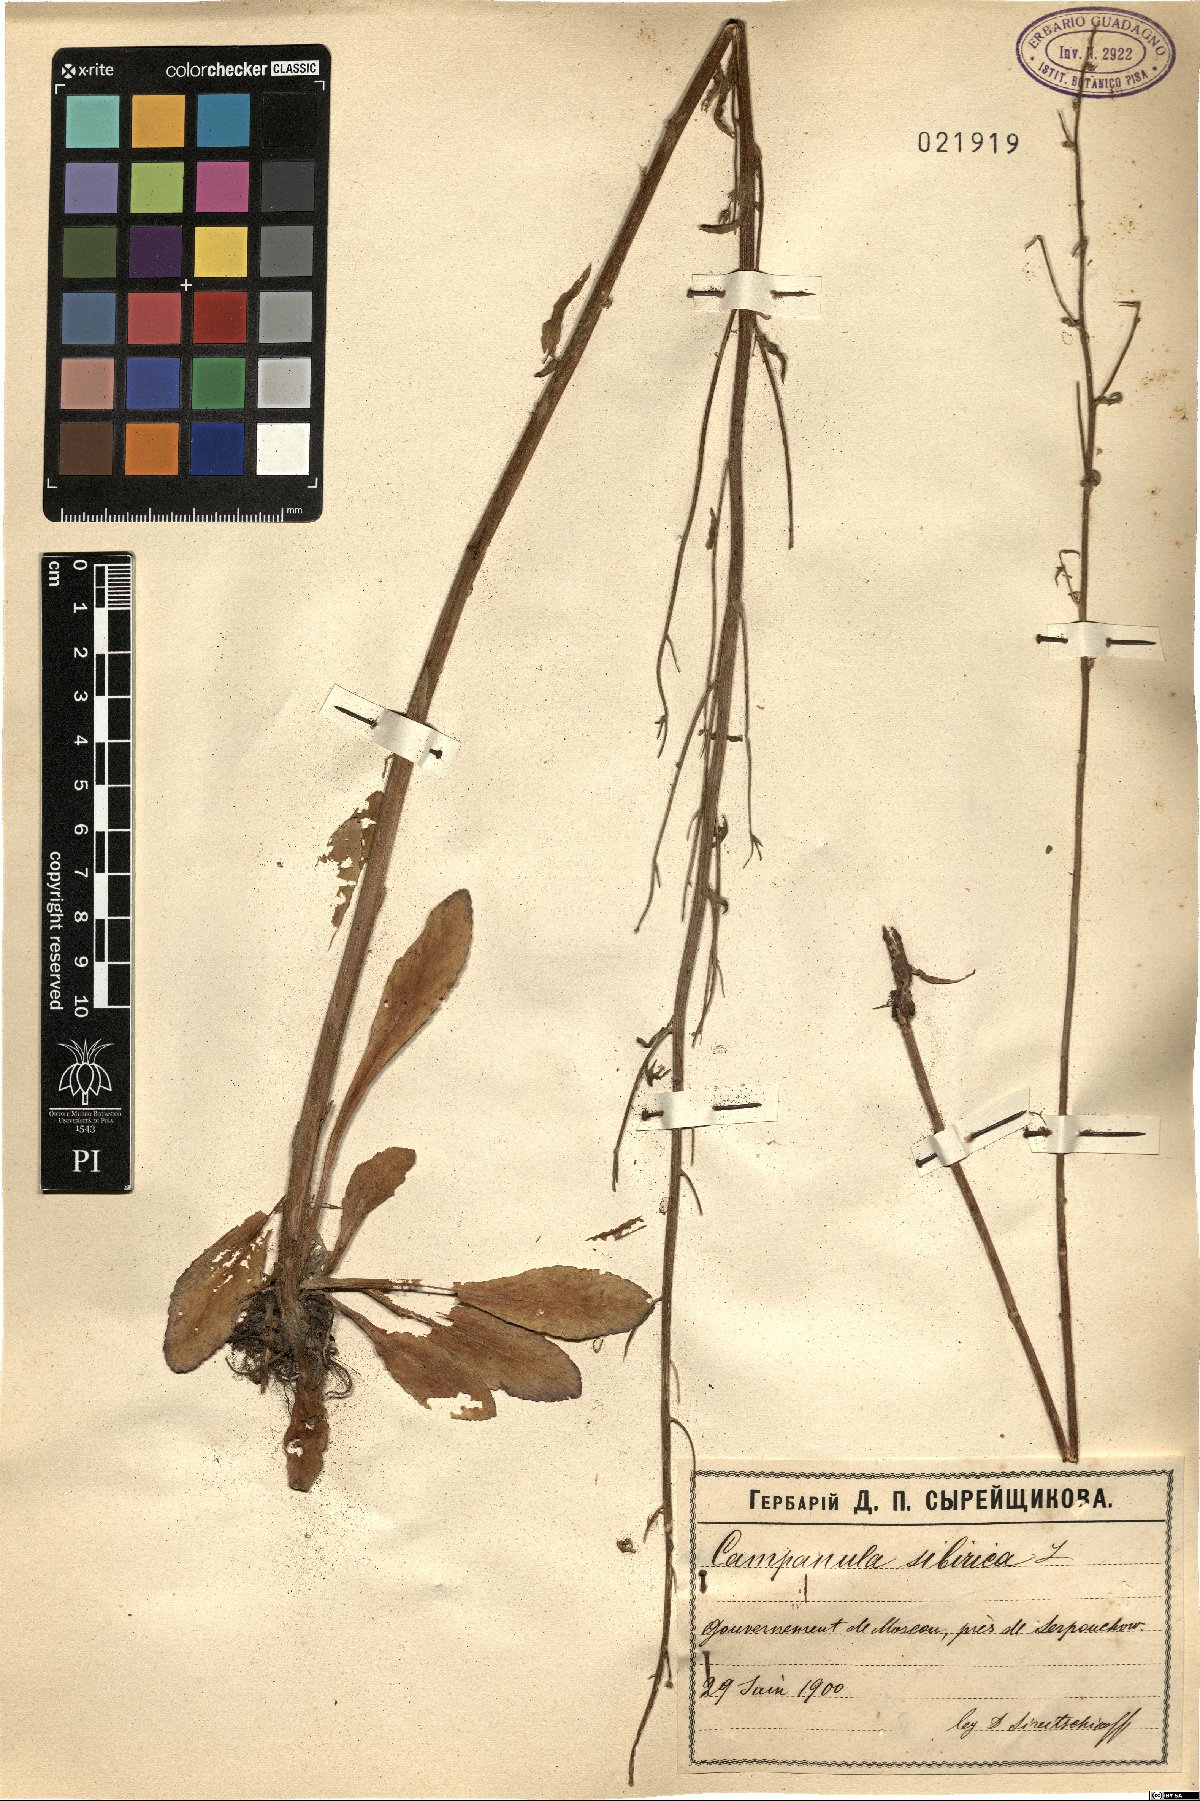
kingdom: Plantae
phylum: Tracheophyta
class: Magnoliopsida
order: Asterales
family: Campanulaceae
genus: Campanula
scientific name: Campanula sibirica
